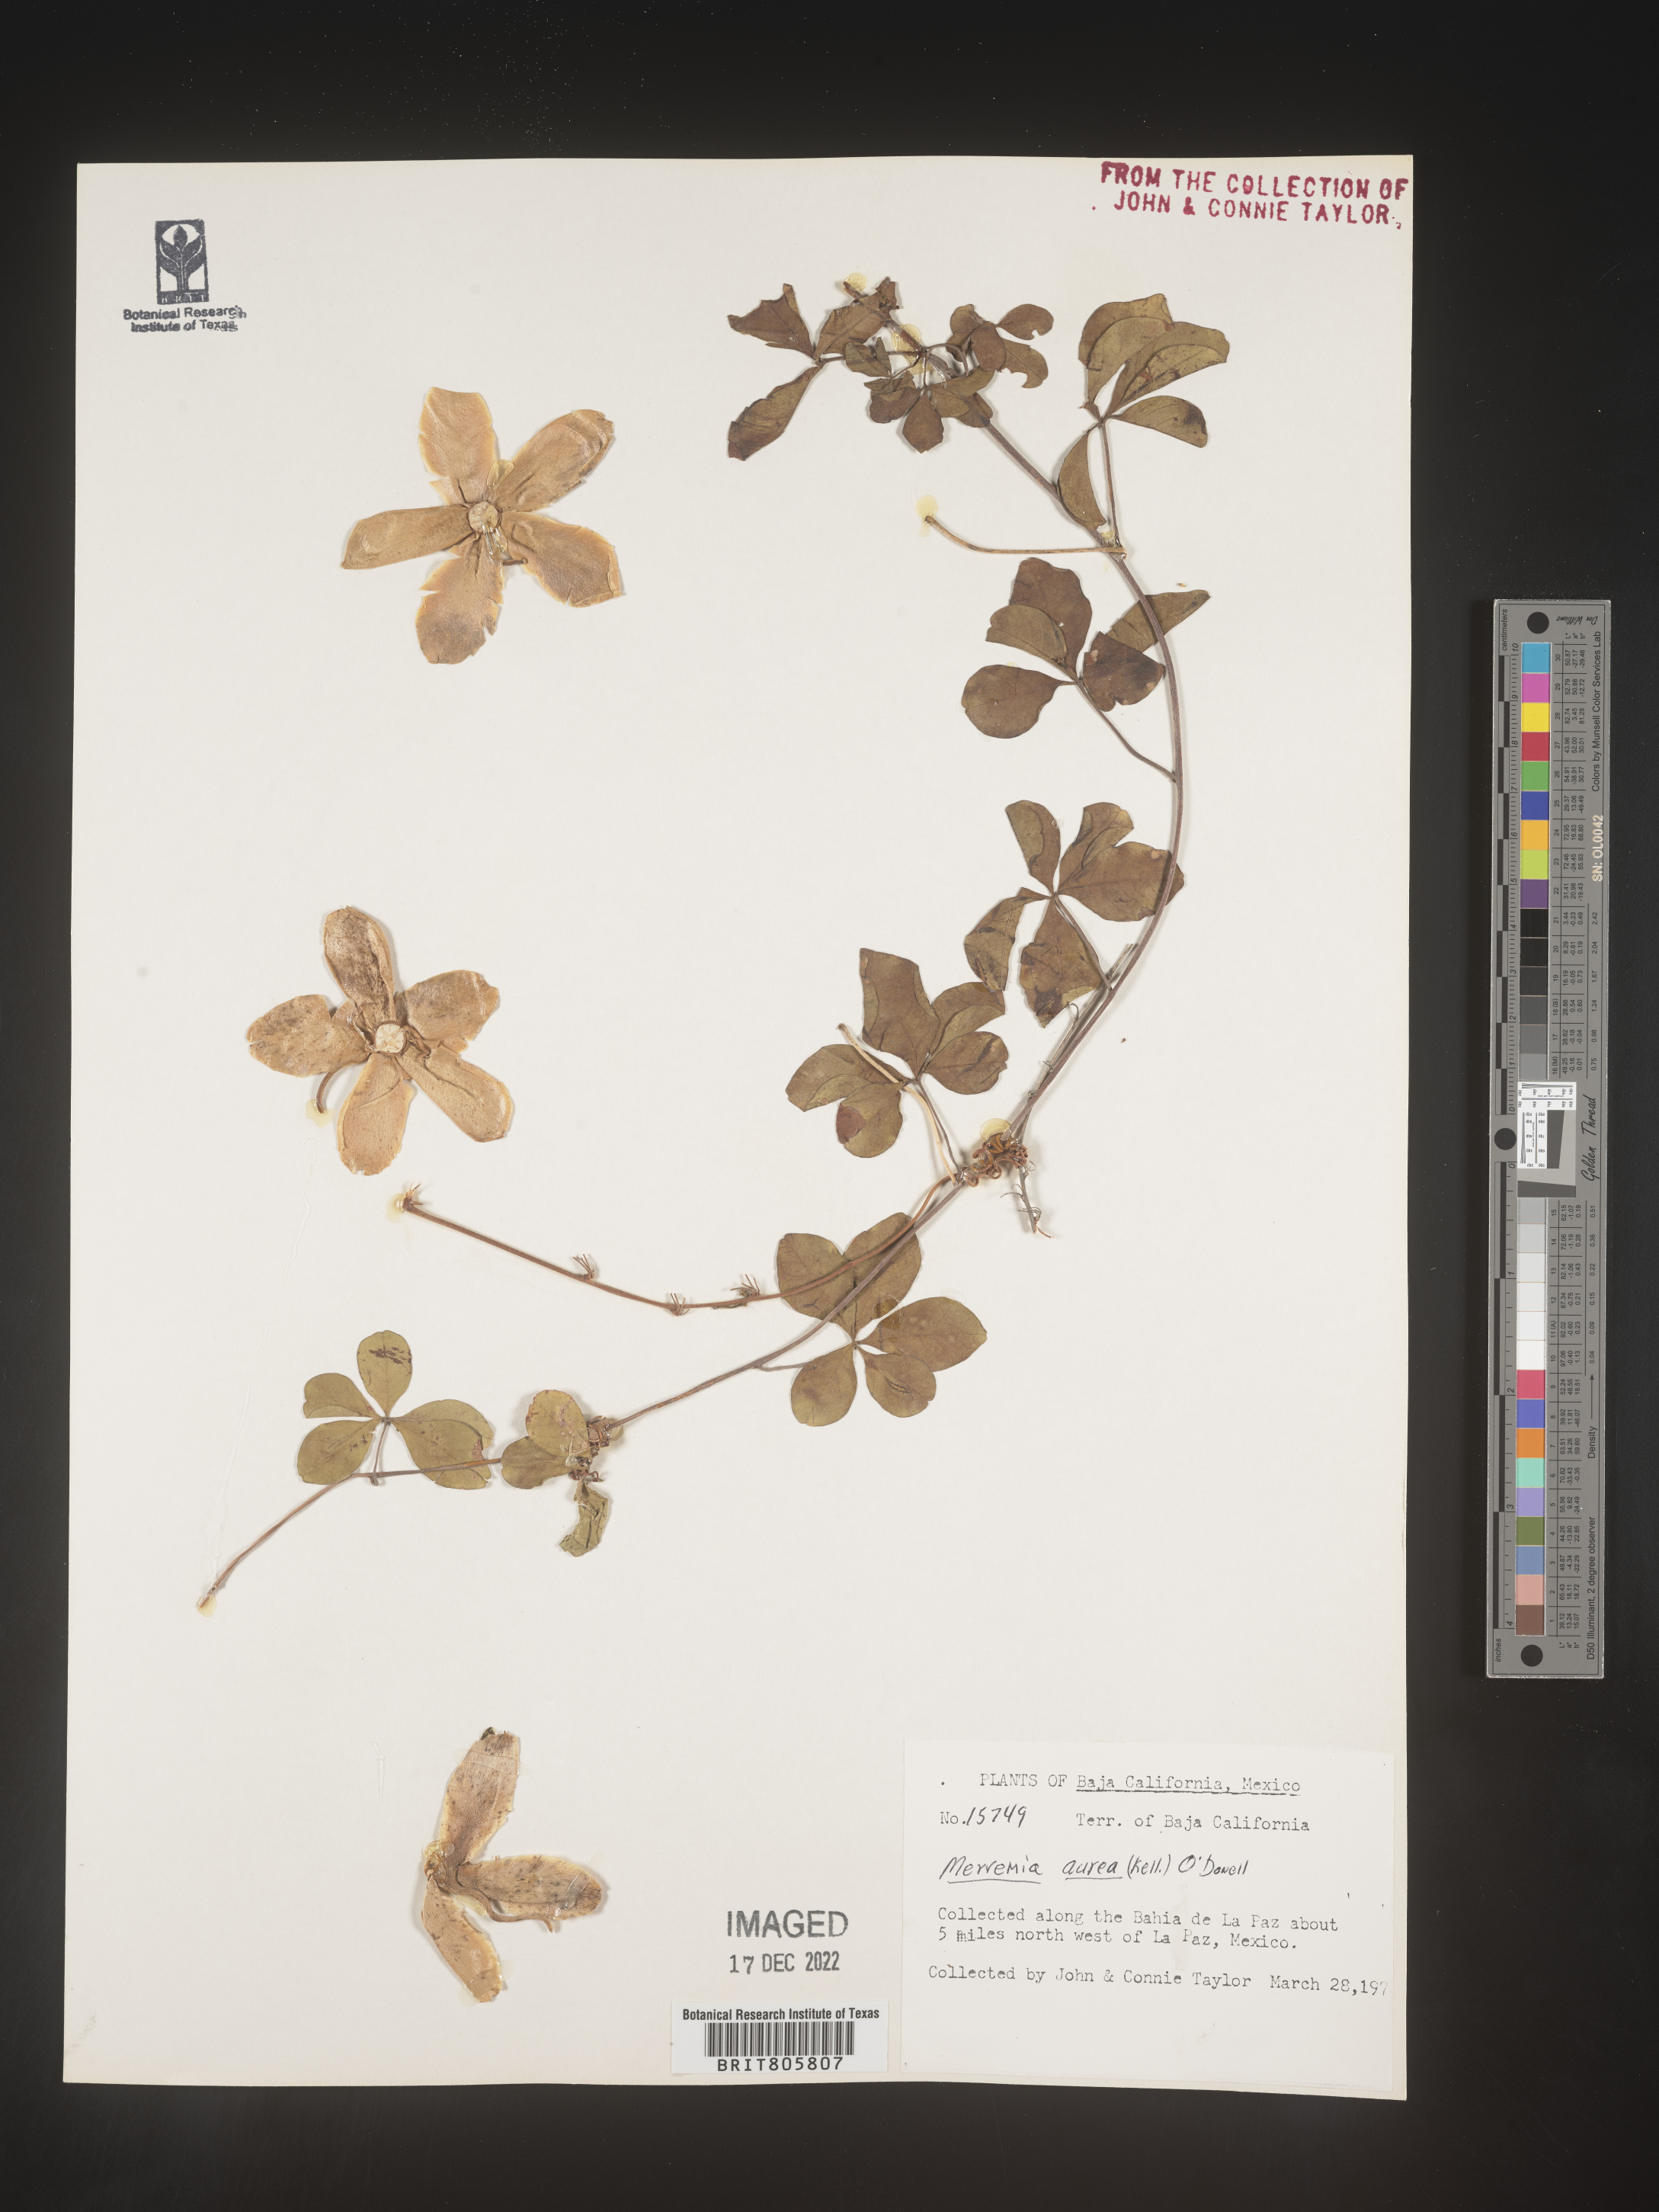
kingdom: Plantae
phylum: Tracheophyta
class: Magnoliopsida
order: Solanales
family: Convolvulaceae
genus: Merremia
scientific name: Merremia
